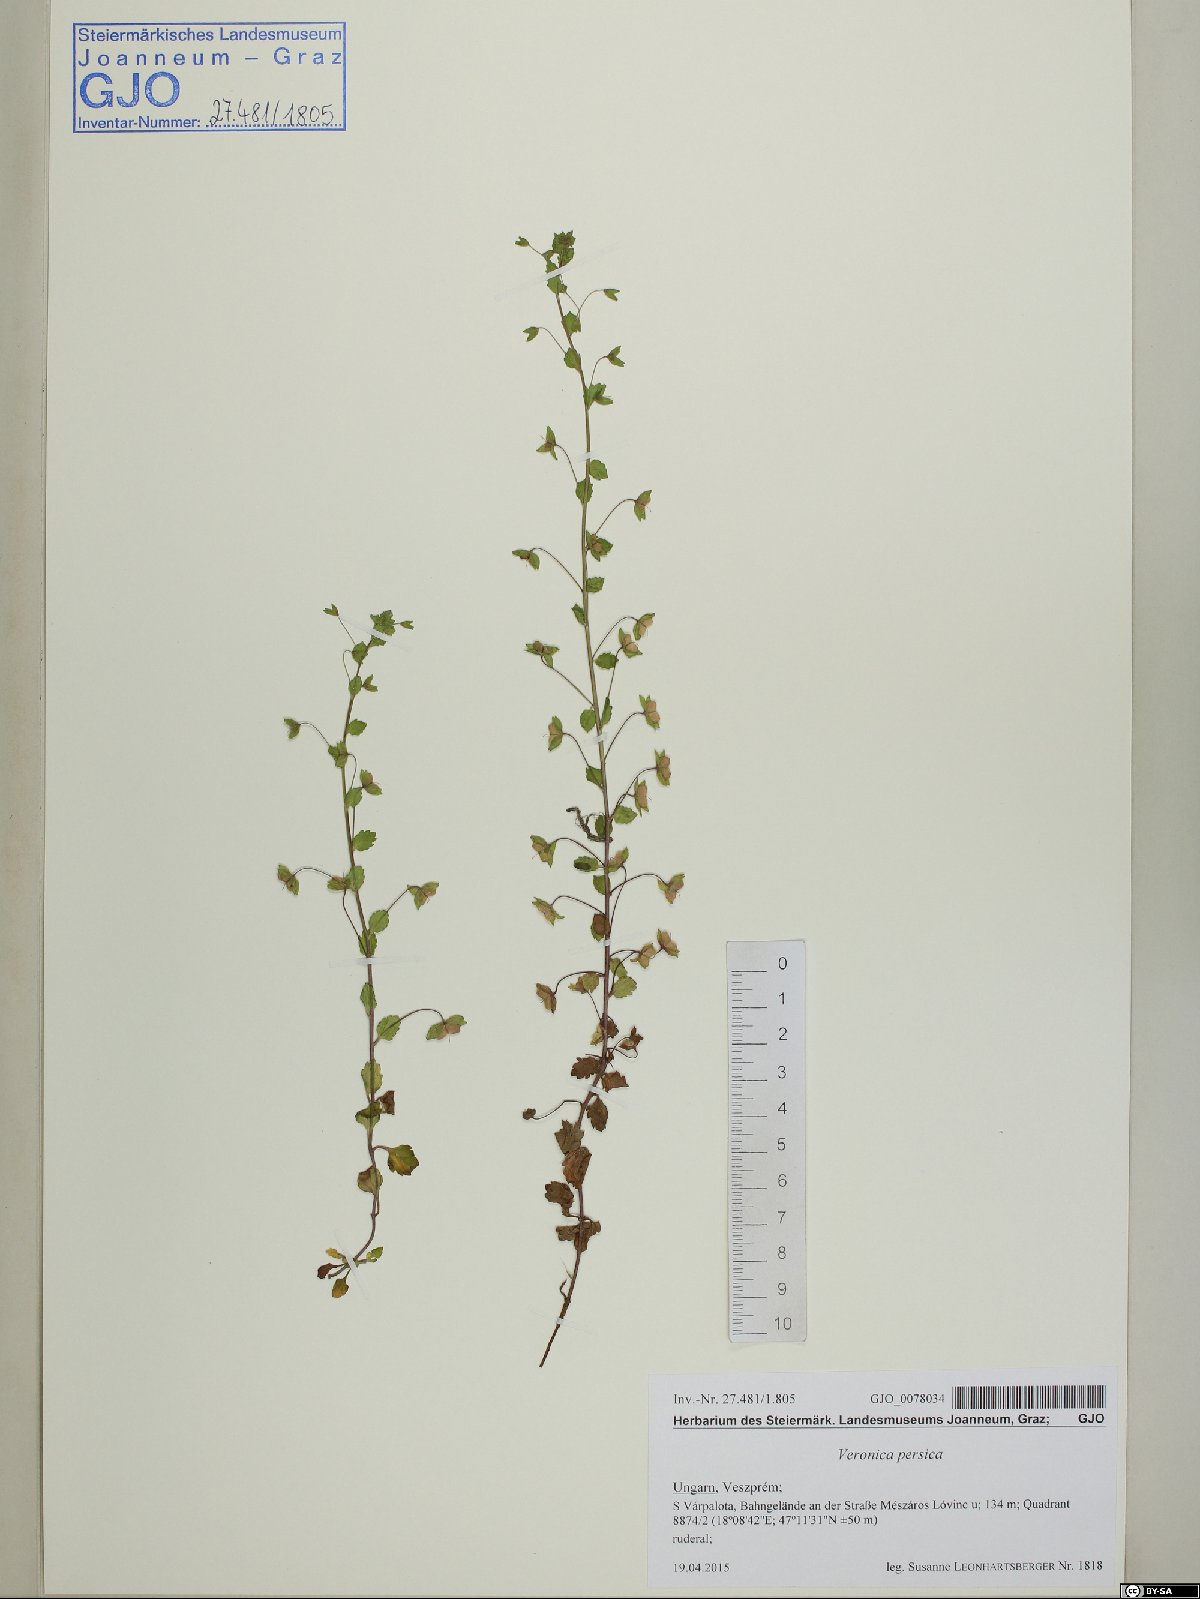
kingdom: Plantae
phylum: Tracheophyta
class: Magnoliopsida
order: Lamiales
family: Plantaginaceae
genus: Veronica
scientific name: Veronica persica
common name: Common field-speedwell
